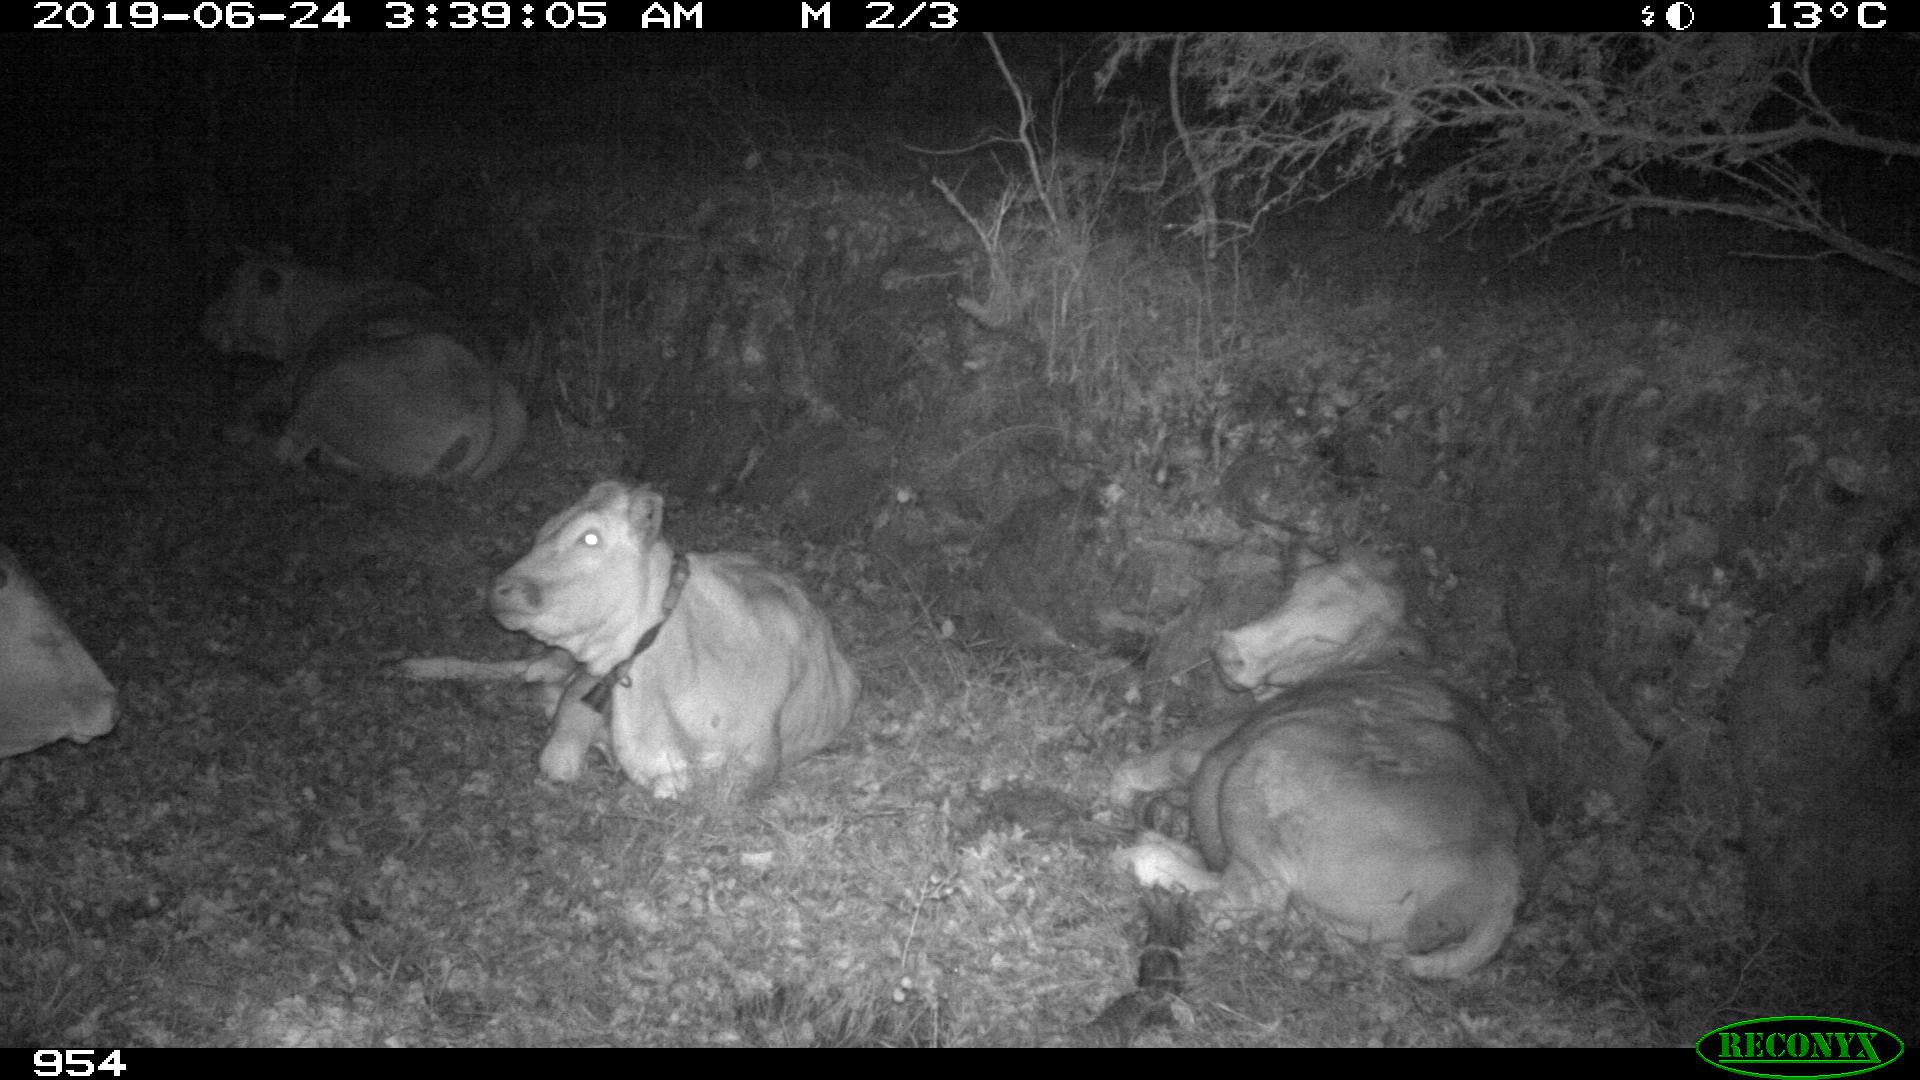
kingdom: Animalia
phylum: Chordata
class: Mammalia
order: Artiodactyla
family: Bovidae
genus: Bos
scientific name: Bos taurus
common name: Domesticated cattle
